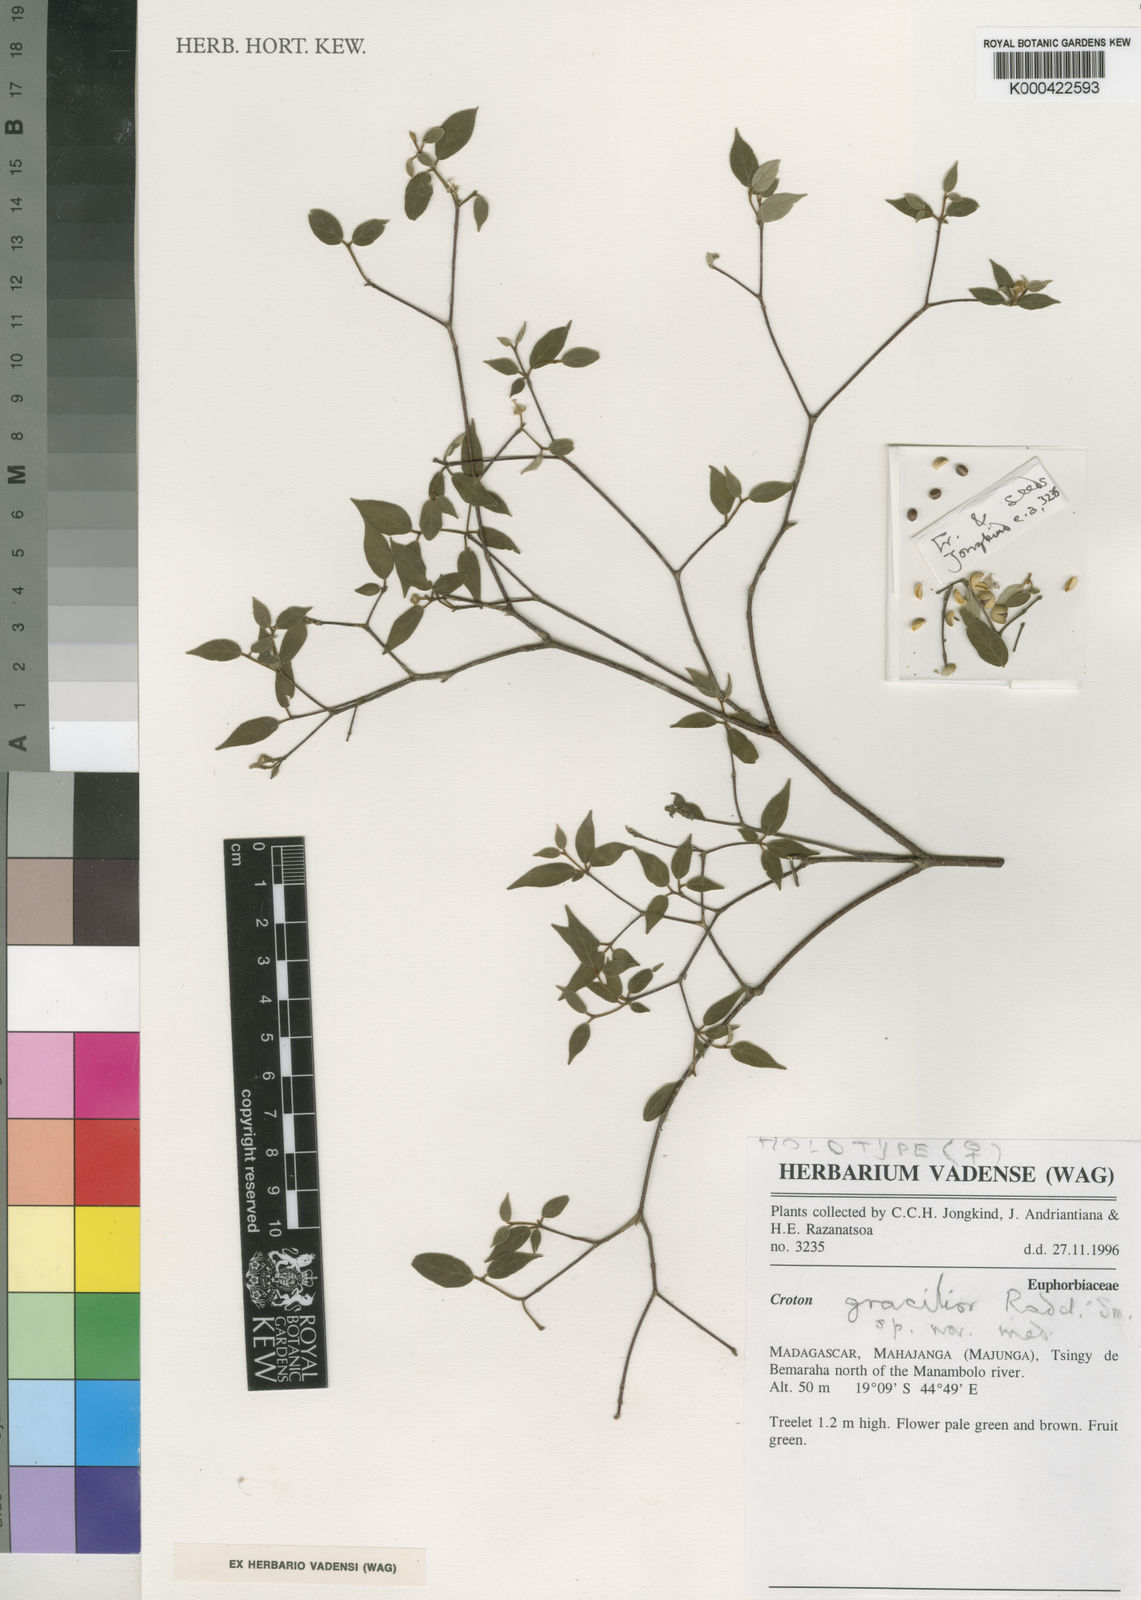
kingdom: Plantae
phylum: Tracheophyta
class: Magnoliopsida
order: Malpighiales
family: Euphorbiaceae
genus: Croton
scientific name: Croton gracilior
